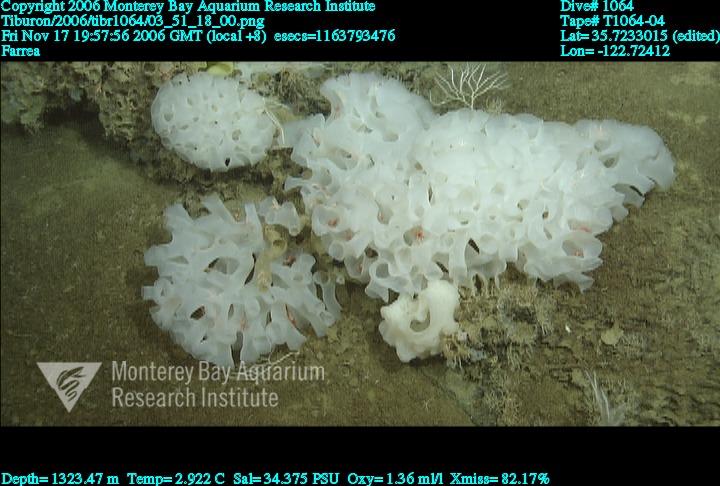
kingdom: Animalia
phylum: Porifera
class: Hexactinellida
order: Sceptrulophora
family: Farreidae
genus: Farrea
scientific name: Farrea
